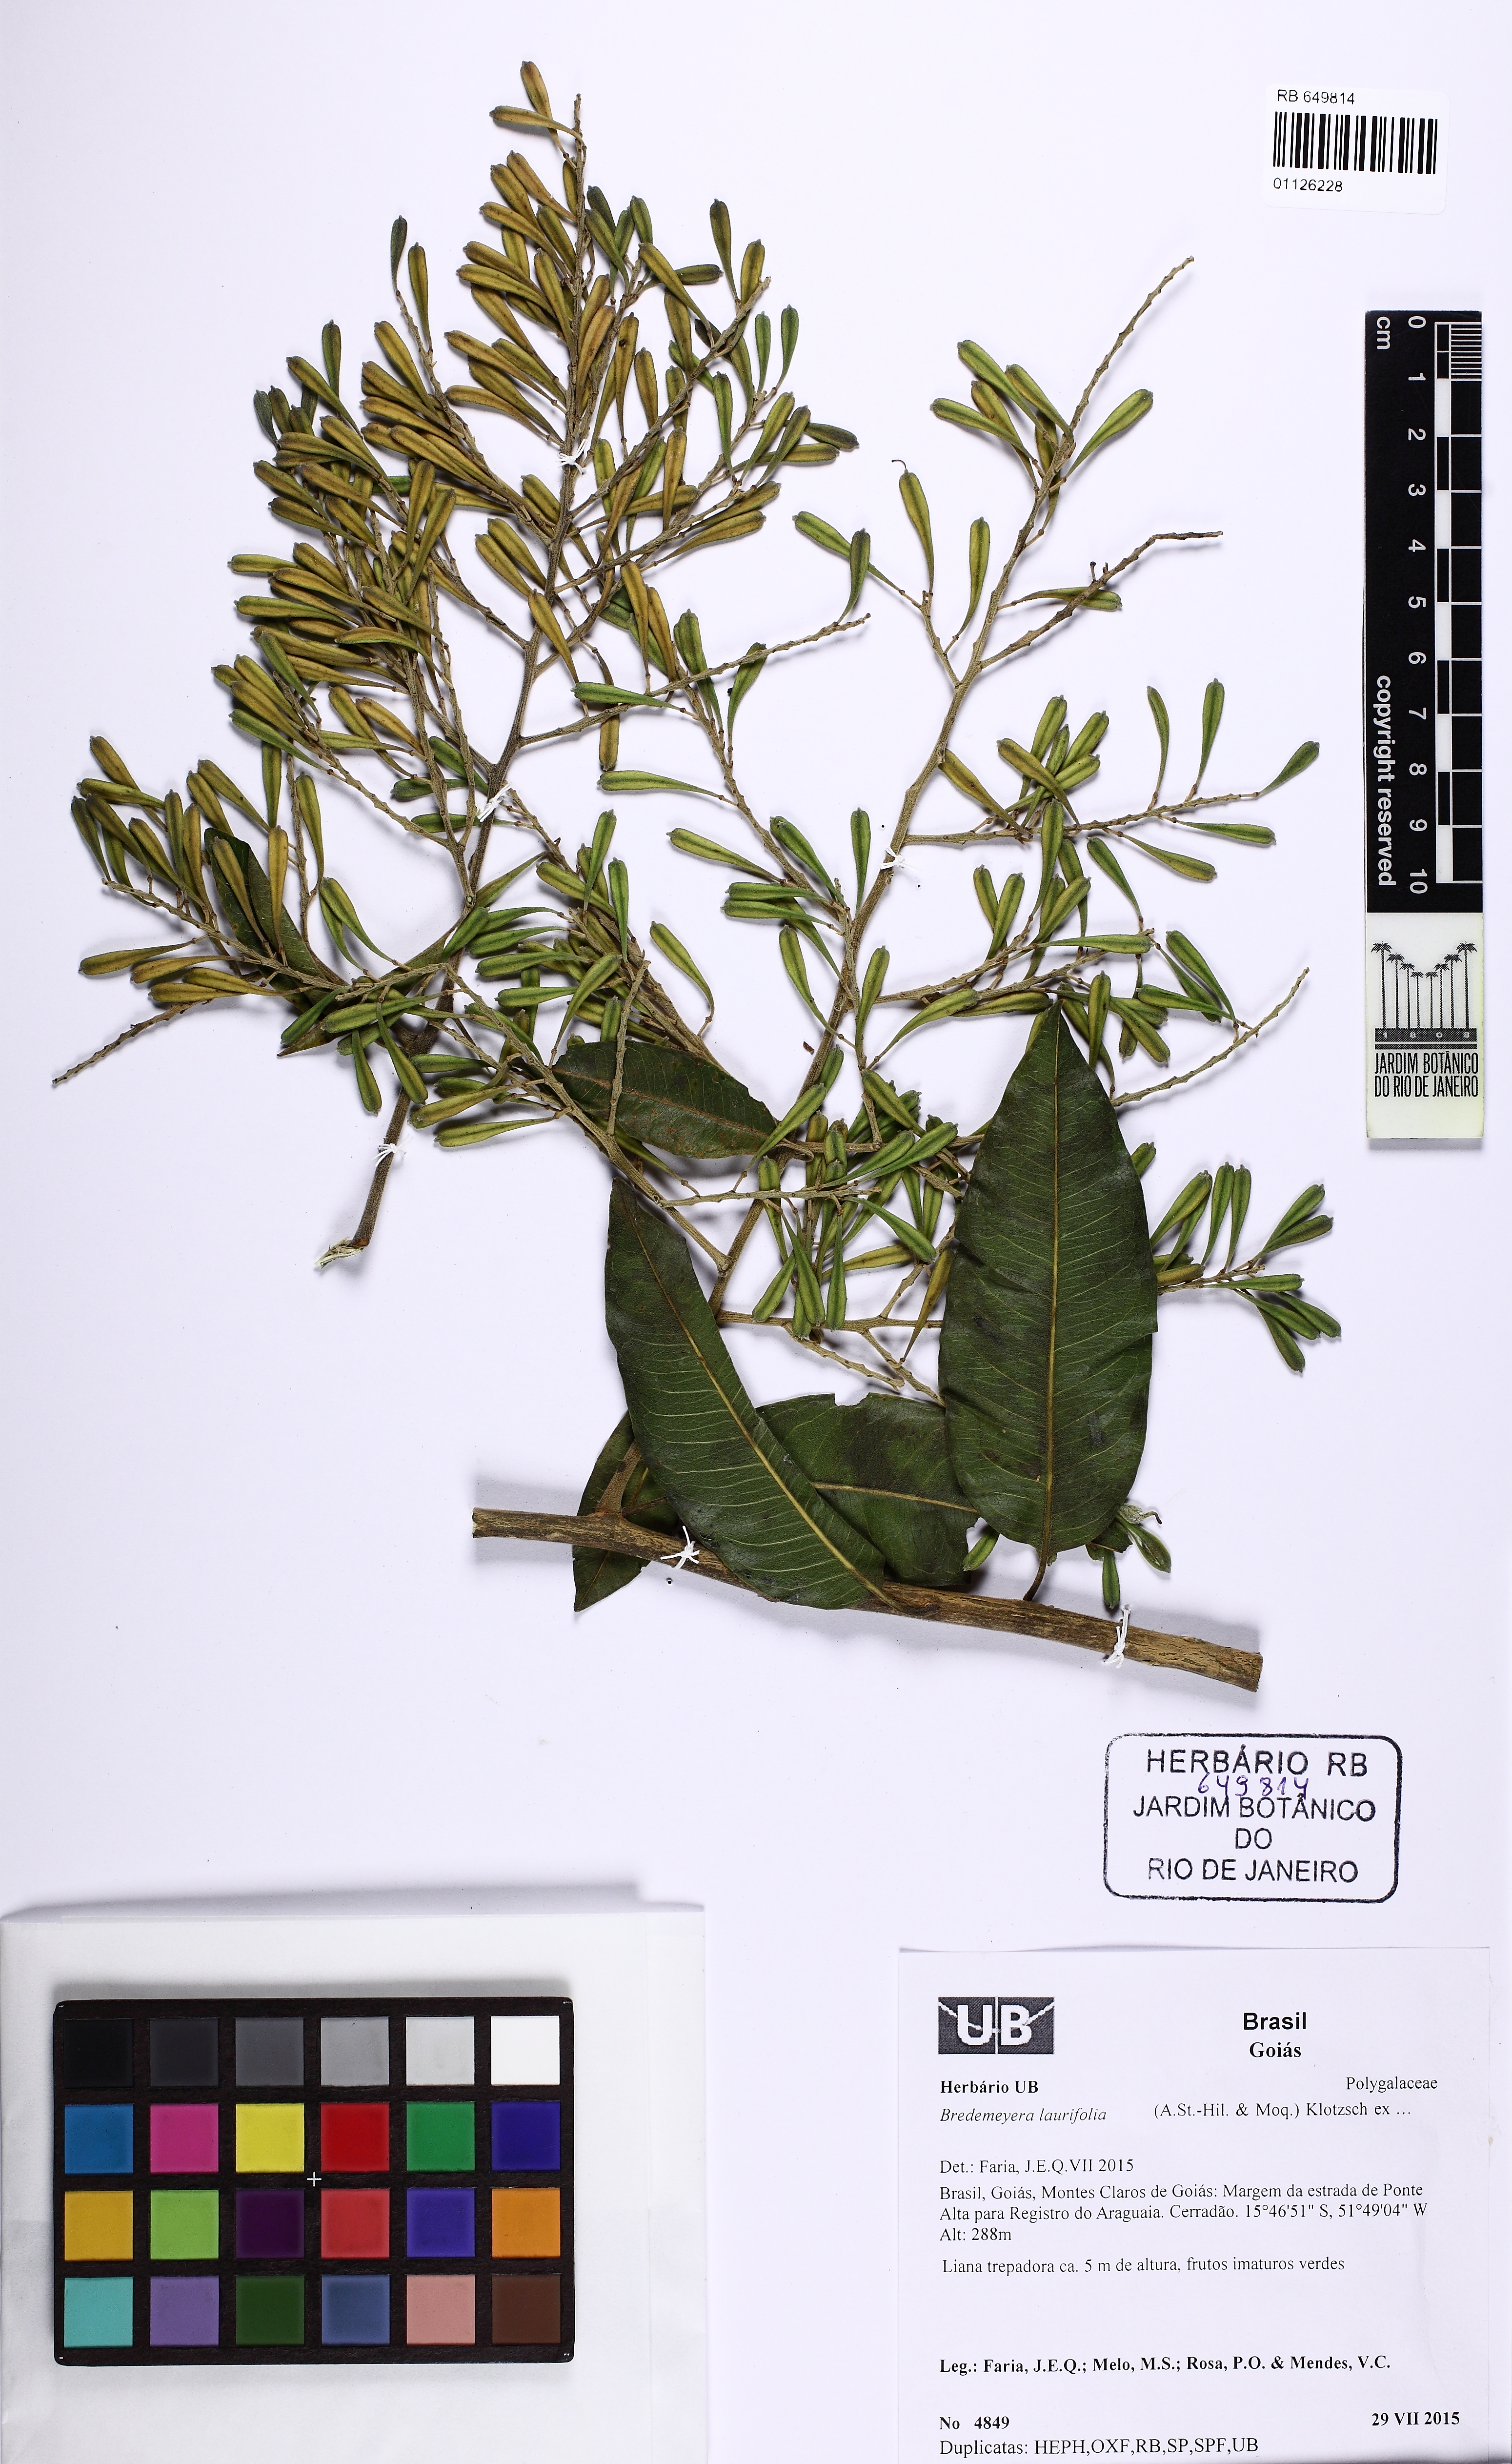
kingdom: Plantae
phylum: Tracheophyta
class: Magnoliopsida
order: Fabales
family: Polygalaceae
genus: Bredemeyera
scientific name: Bredemeyera floribunda
